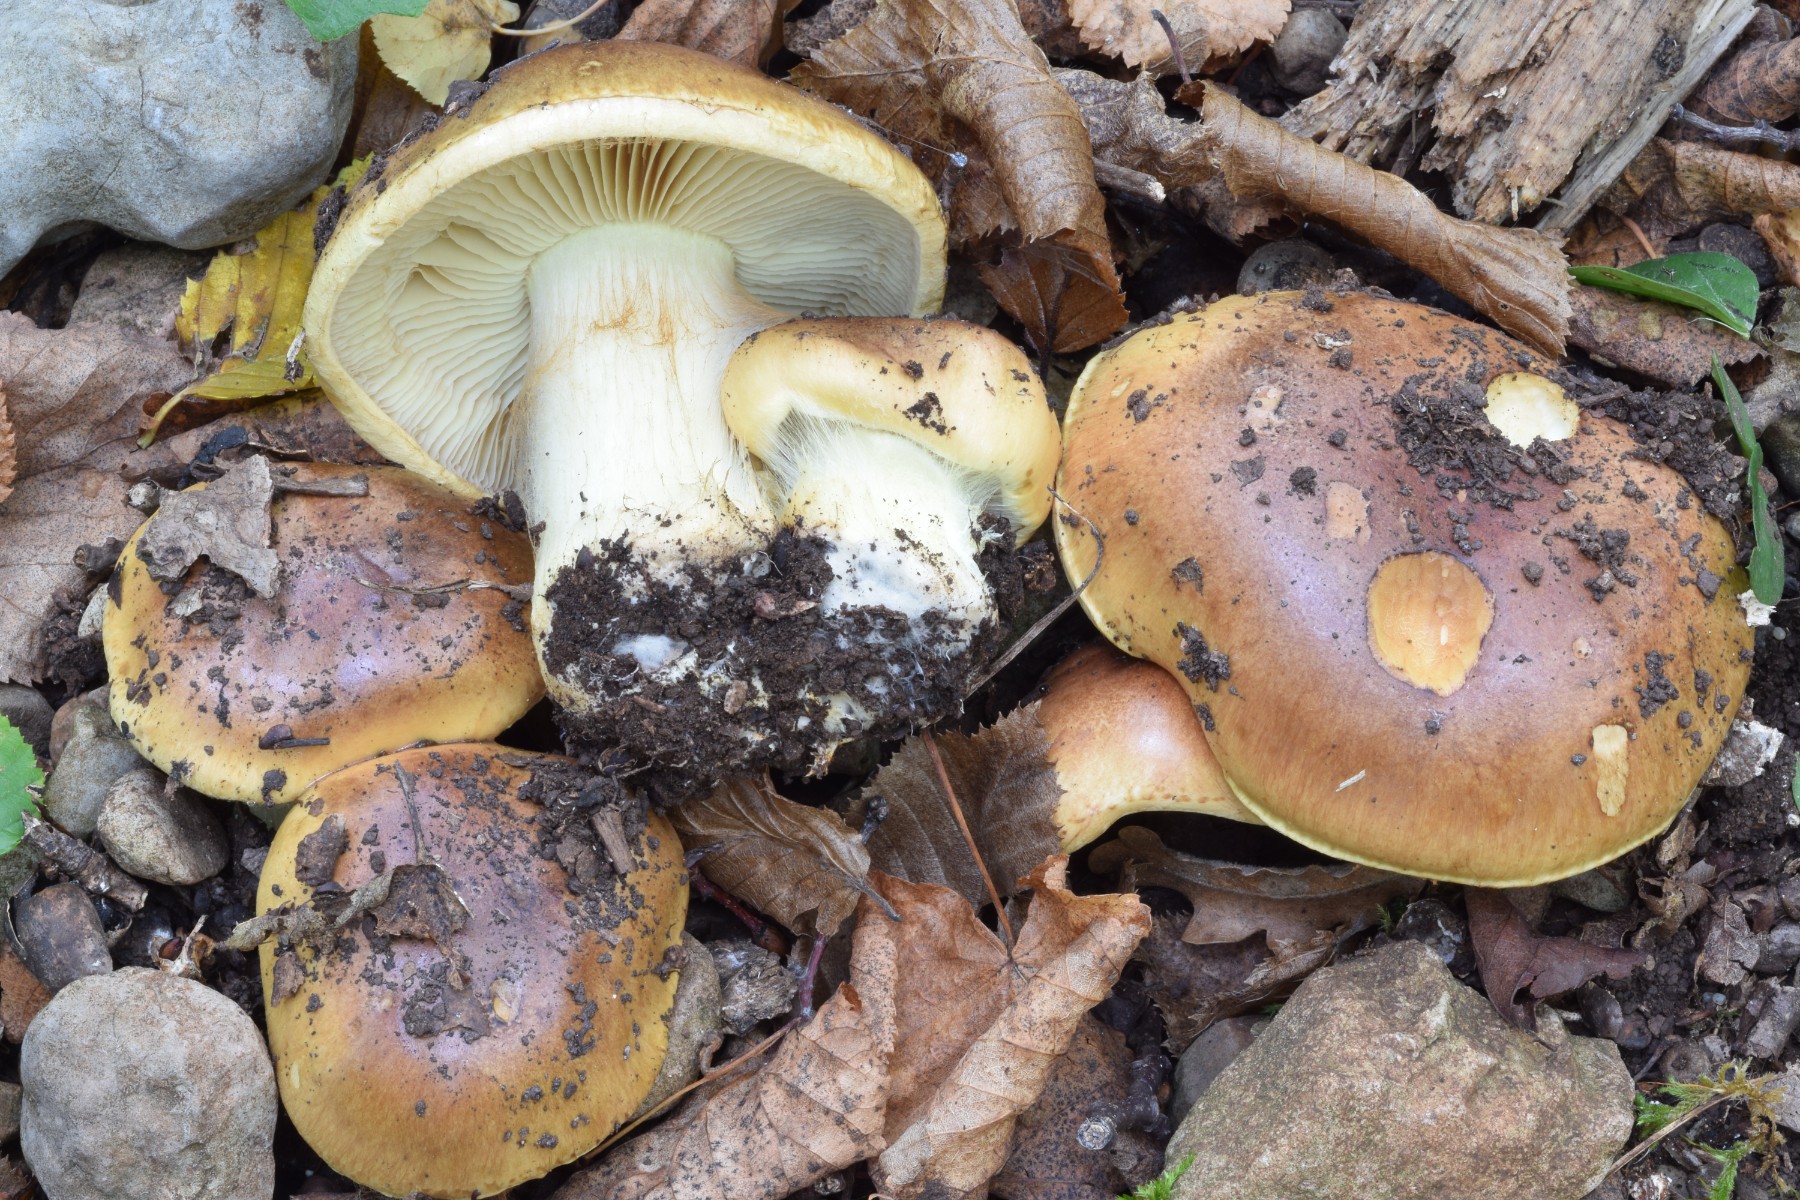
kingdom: Fungi
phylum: Basidiomycota
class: Agaricomycetes
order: Agaricales
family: Cortinariaceae
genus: Phlegmacium
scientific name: Phlegmacium aurilicis
